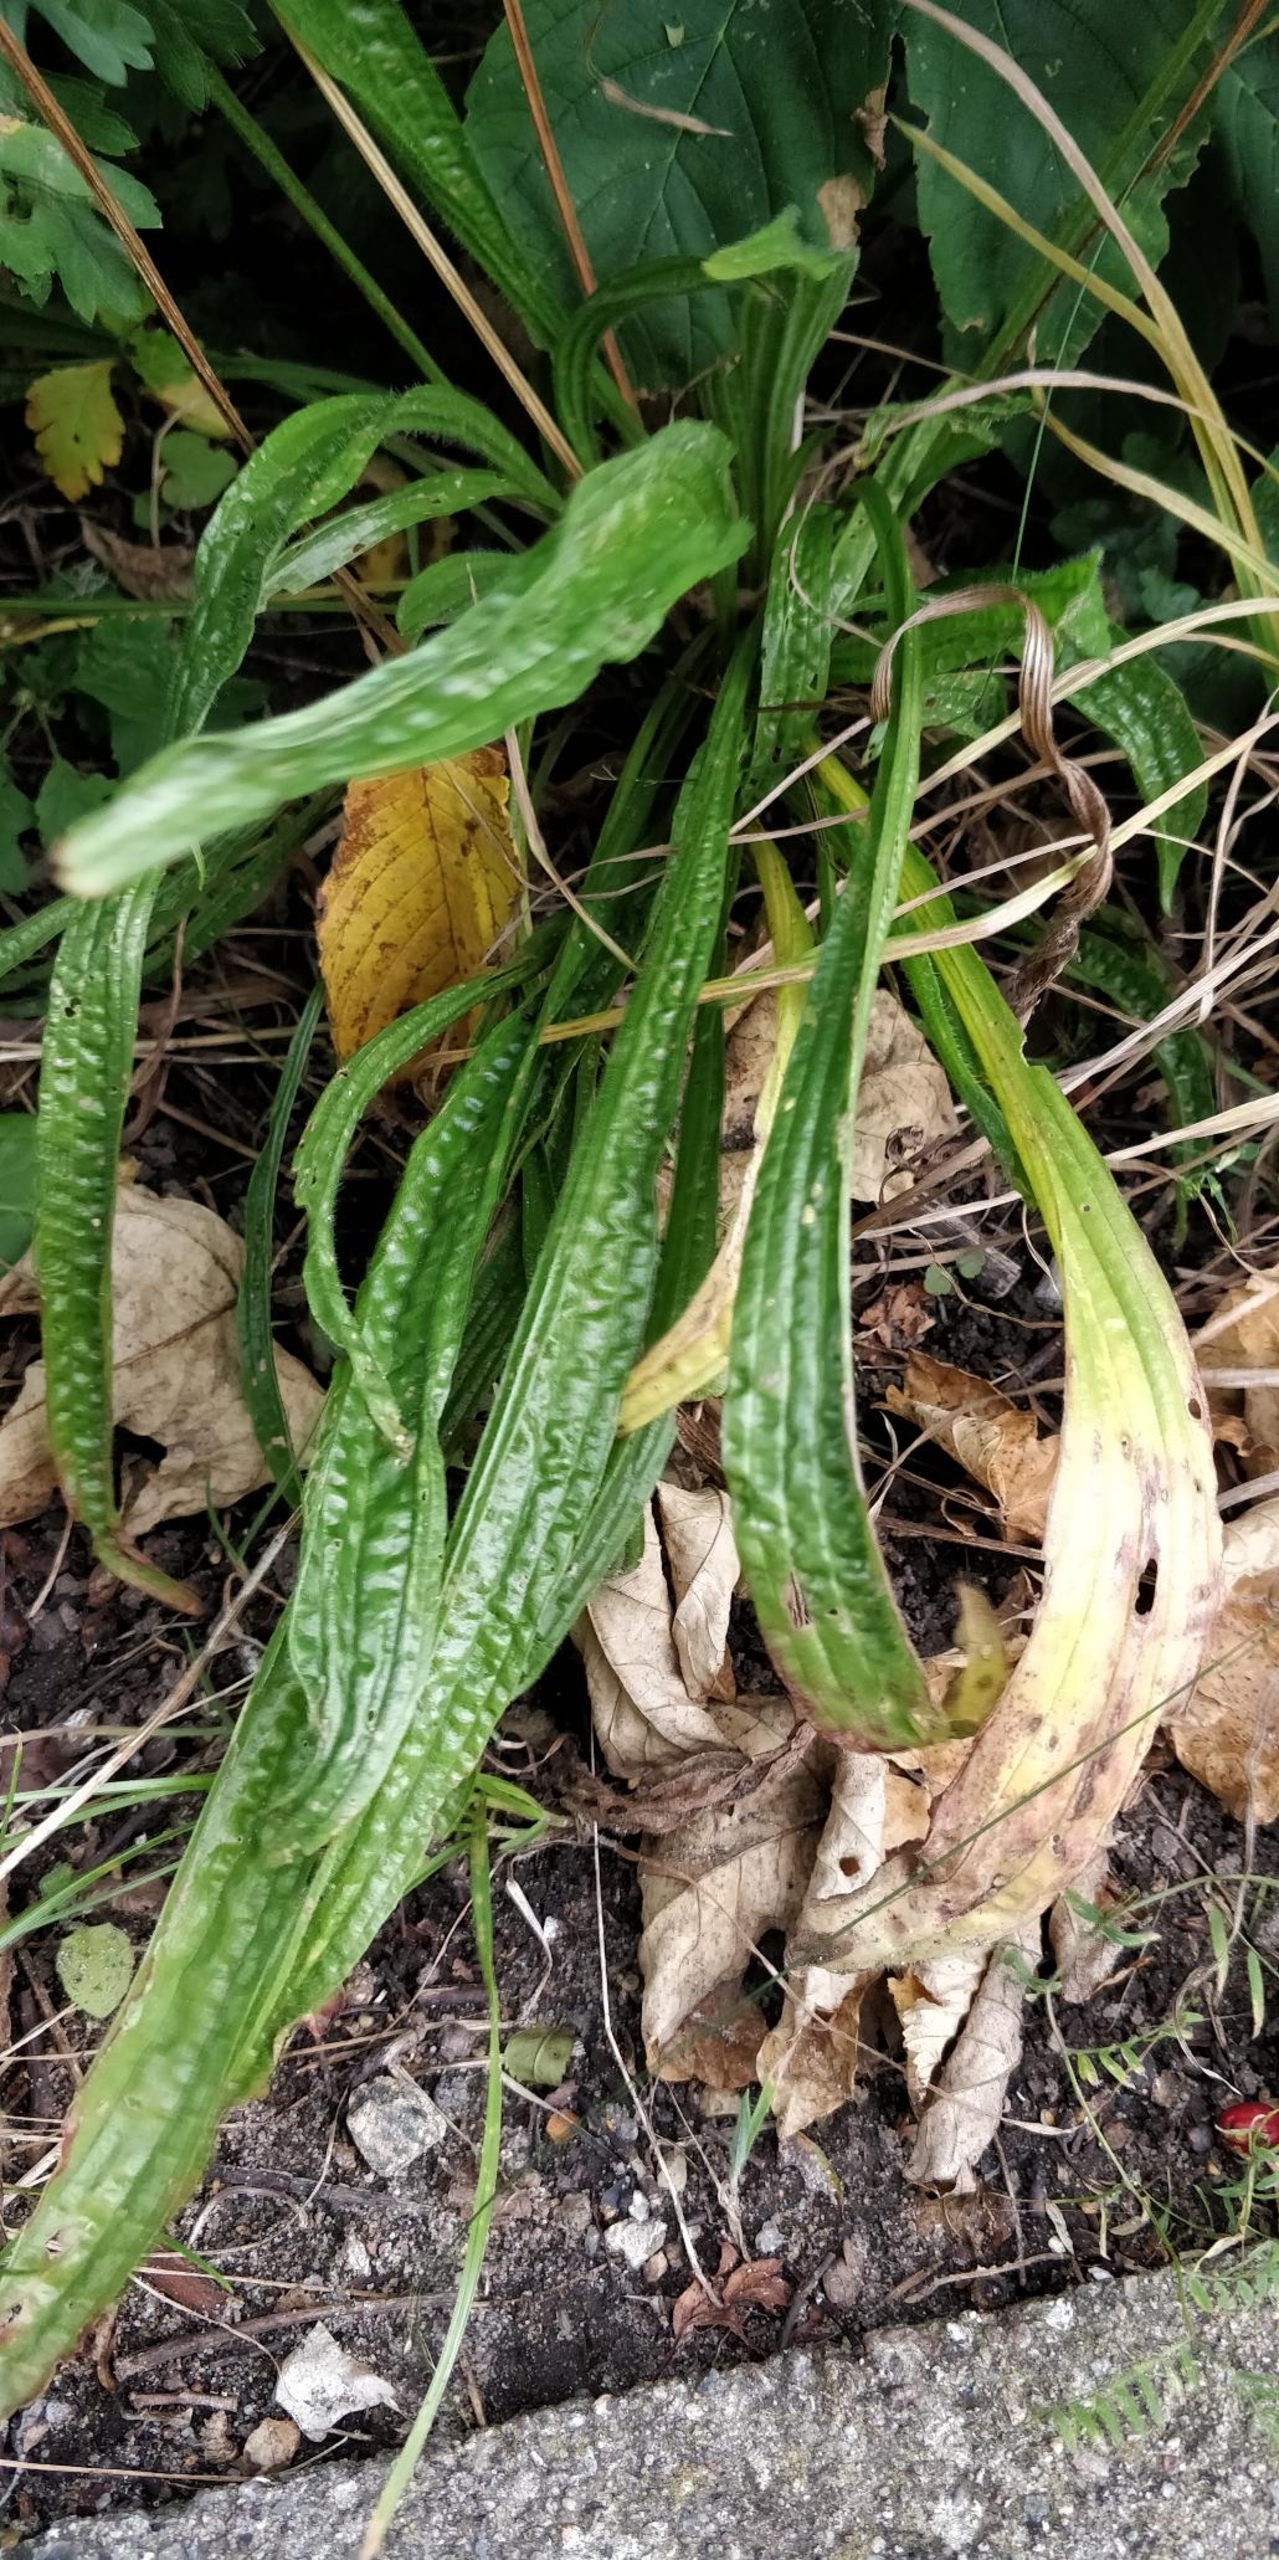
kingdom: Plantae
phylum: Tracheophyta
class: Magnoliopsida
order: Lamiales
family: Plantaginaceae
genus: Plantago
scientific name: Plantago lanceolata
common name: Lancet-vejbred
